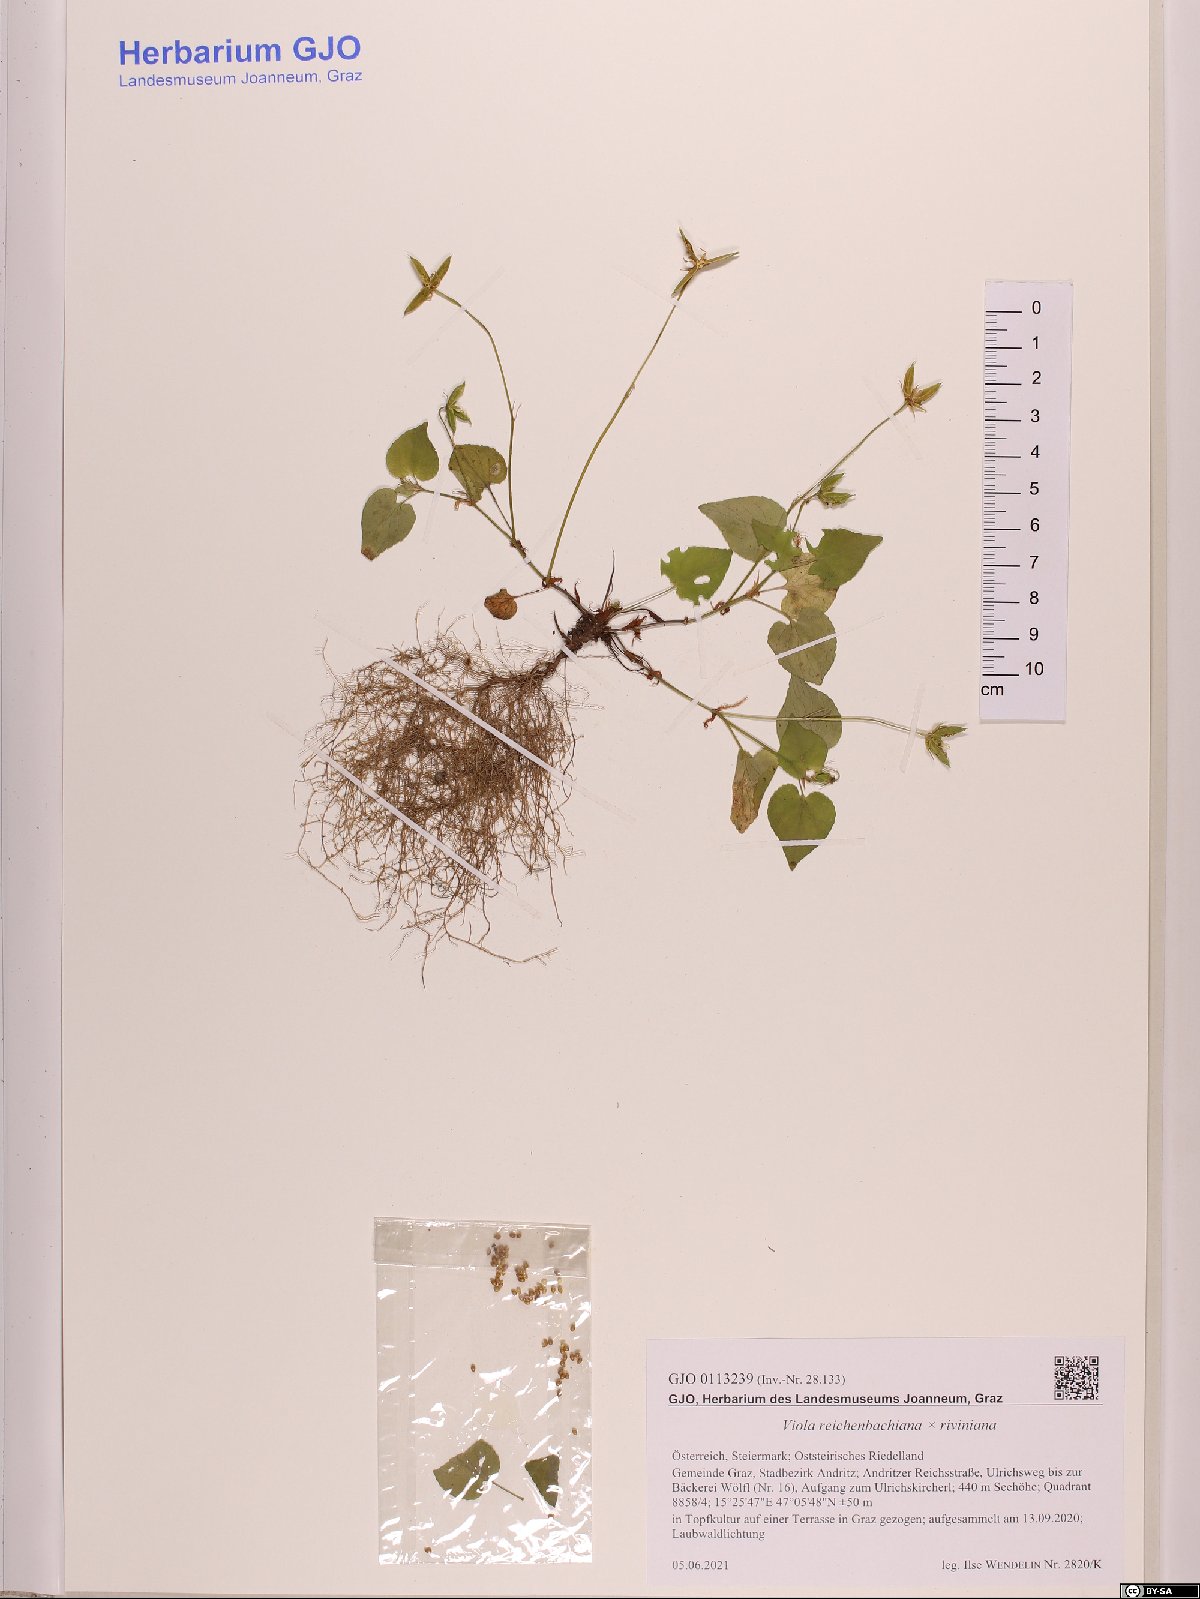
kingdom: Plantae
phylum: Tracheophyta
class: Magnoliopsida
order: Malpighiales
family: Violaceae
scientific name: Violaceae
